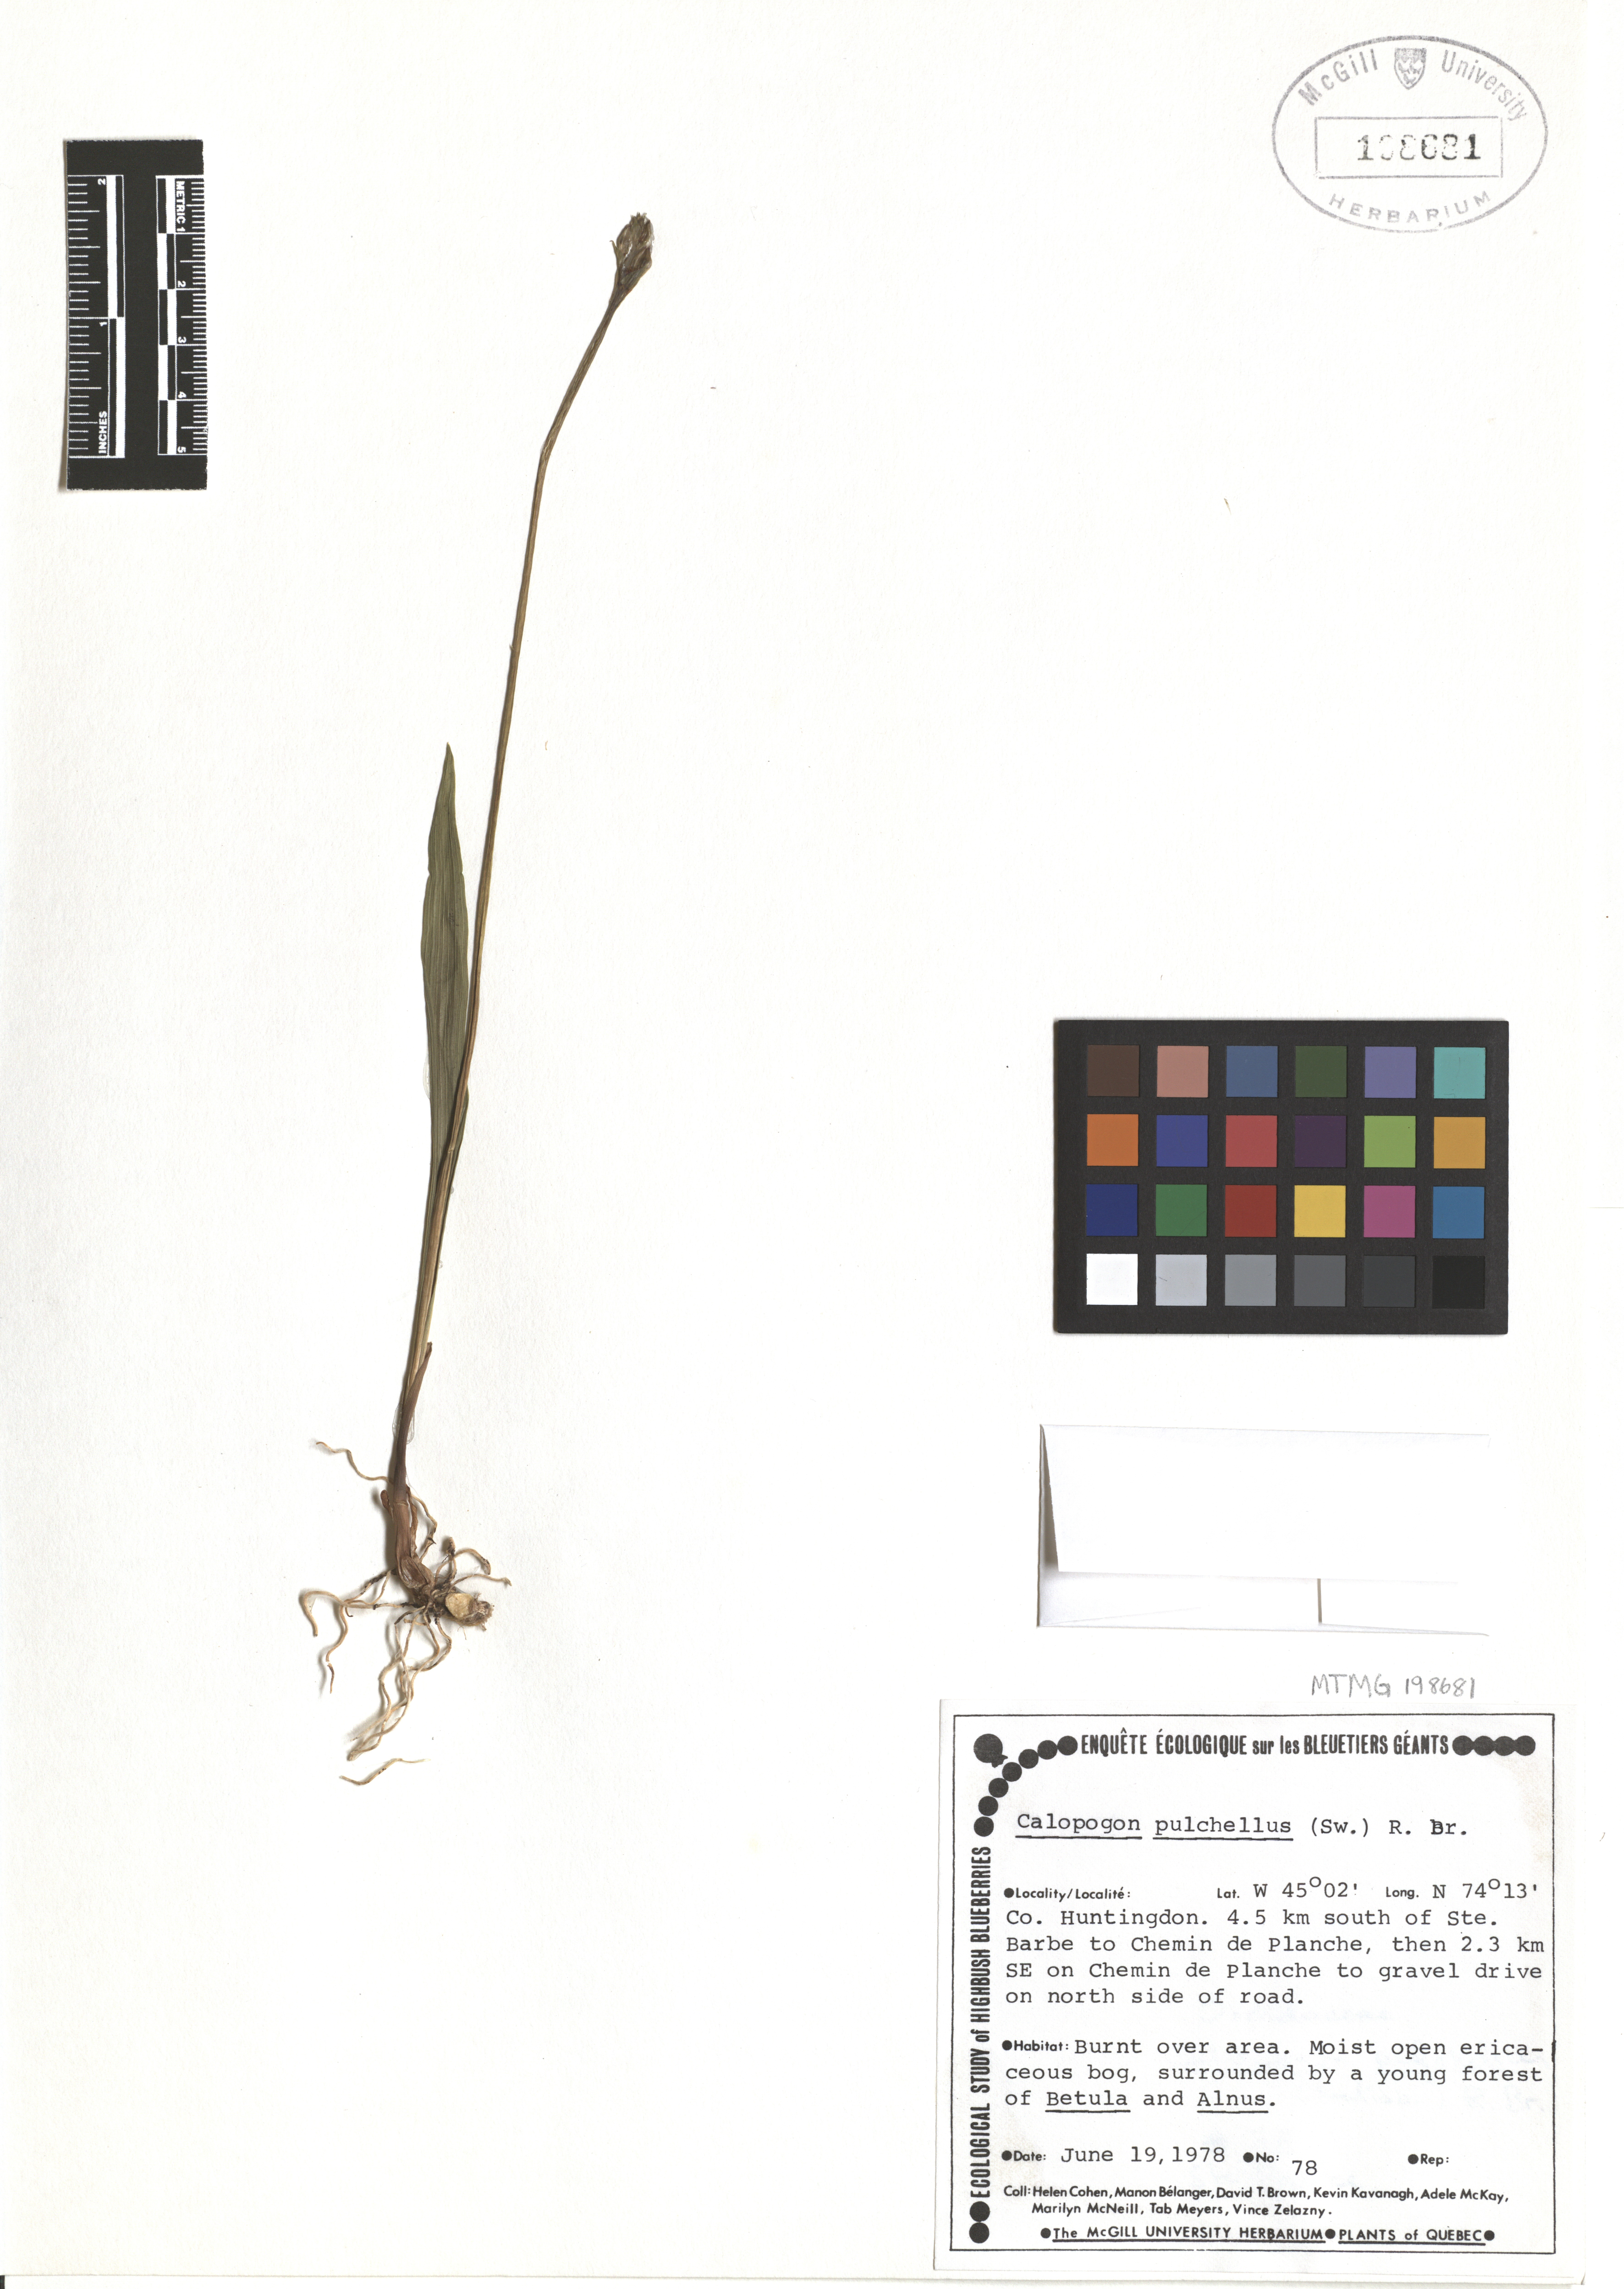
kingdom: Plantae
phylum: Tracheophyta
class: Liliopsida
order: Asparagales
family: Orchidaceae
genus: Calopogon
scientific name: Calopogon tuberosus
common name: Grass-pink
